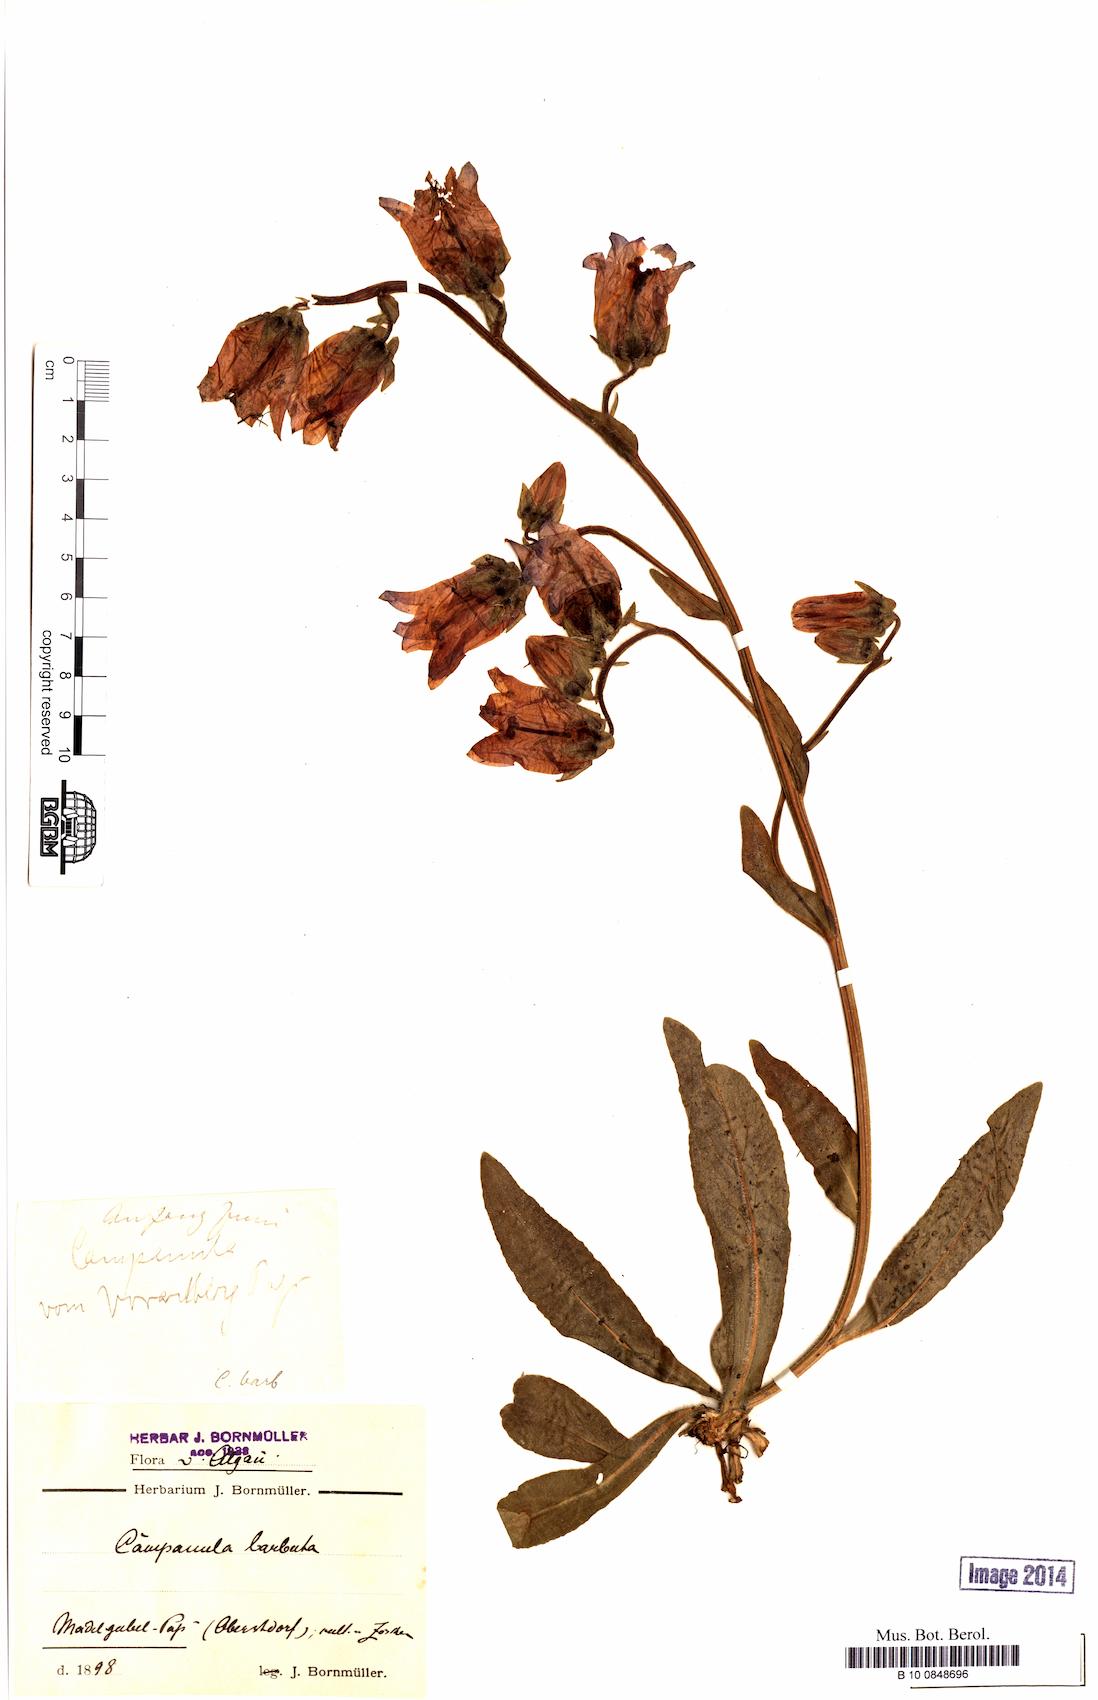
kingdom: Plantae
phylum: Tracheophyta
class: Magnoliopsida
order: Asterales
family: Campanulaceae
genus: Campanula
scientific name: Campanula barbata
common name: Bearded bellflower
